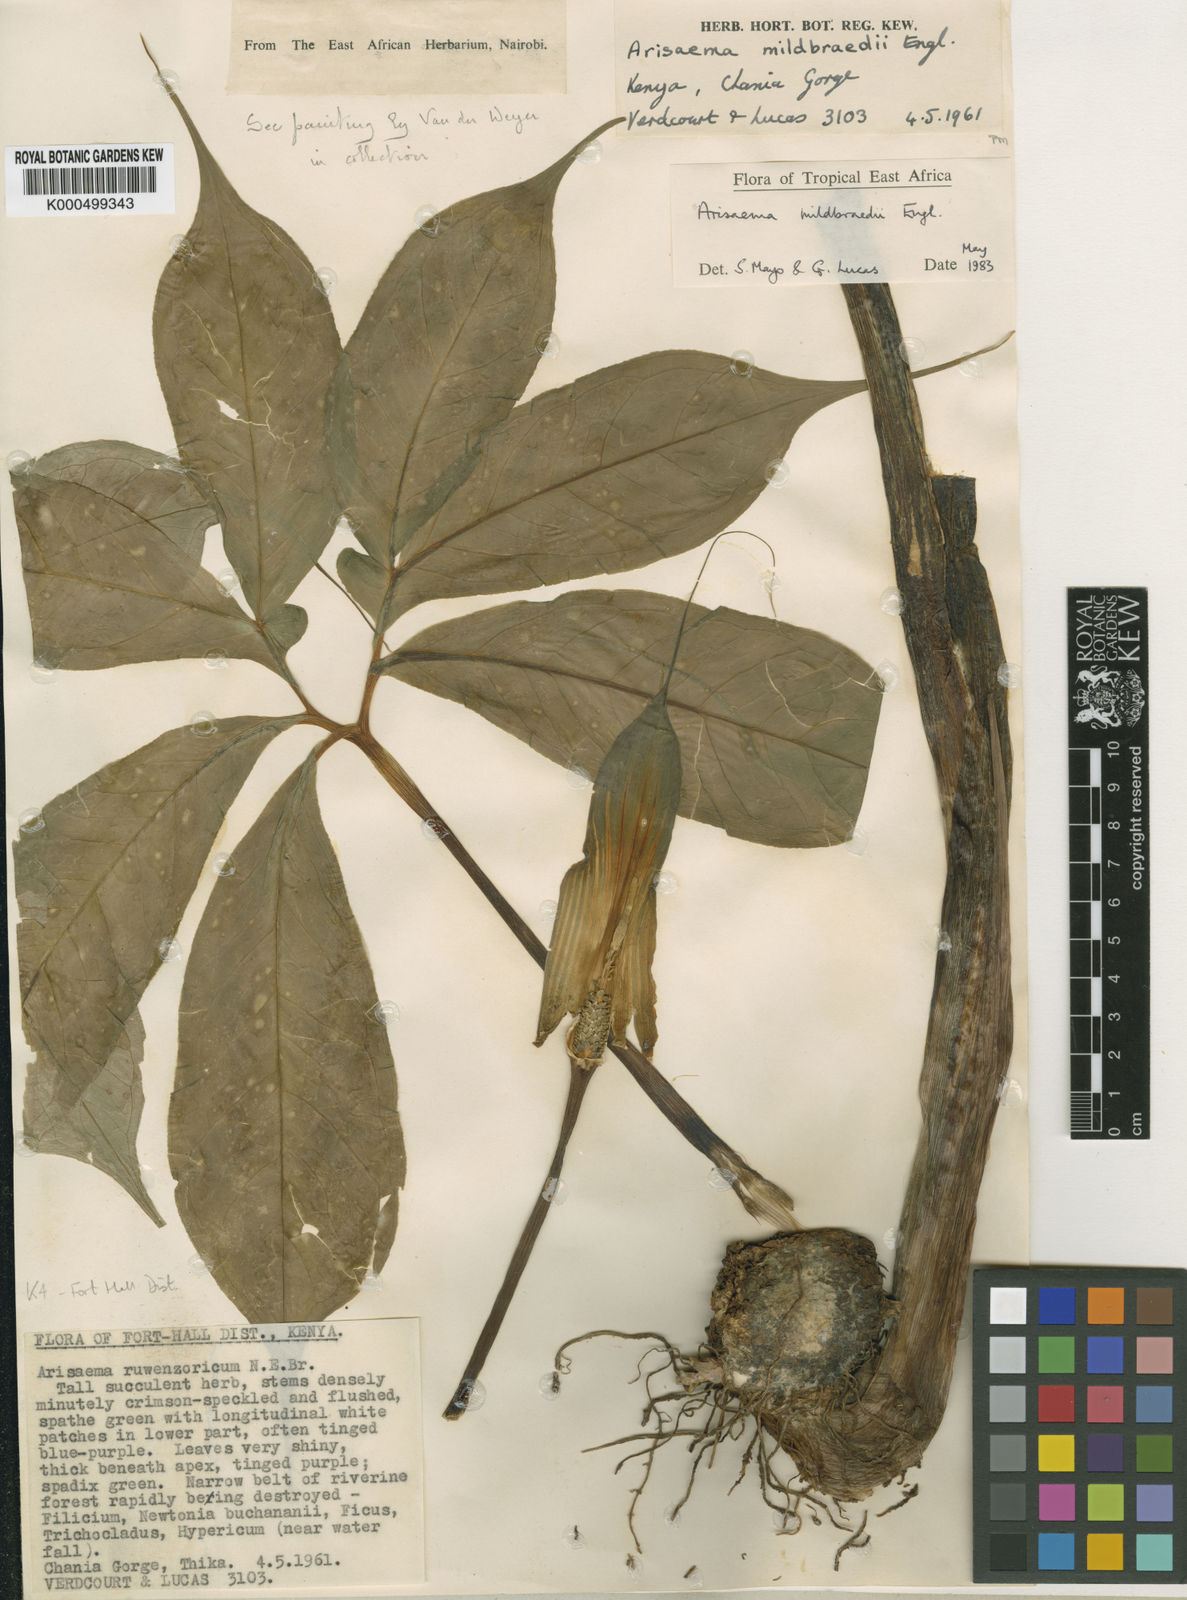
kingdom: Plantae
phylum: Tracheophyta
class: Liliopsida
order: Alismatales
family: Araceae
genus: Arisaema
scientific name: Arisaema
